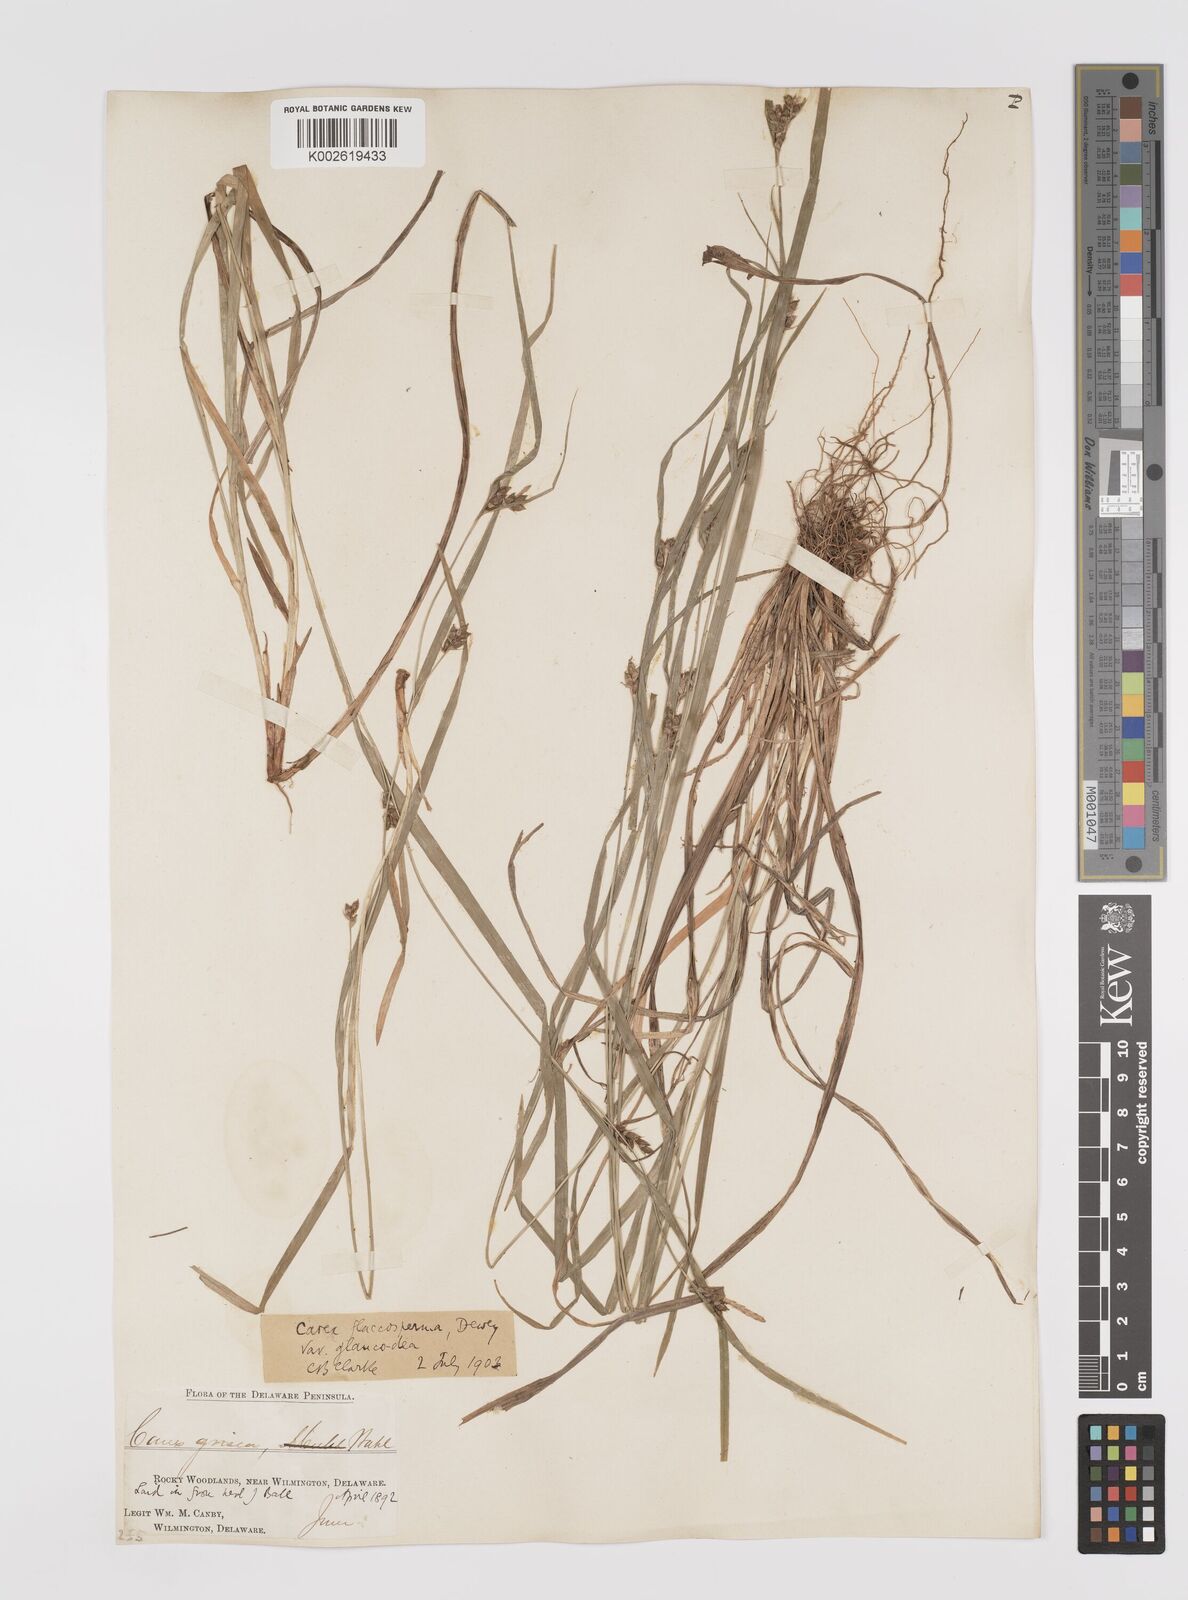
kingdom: Plantae
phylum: Tracheophyta
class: Liliopsida
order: Poales
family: Cyperaceae
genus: Carex
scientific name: Carex glaucodea
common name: Blue sedge
